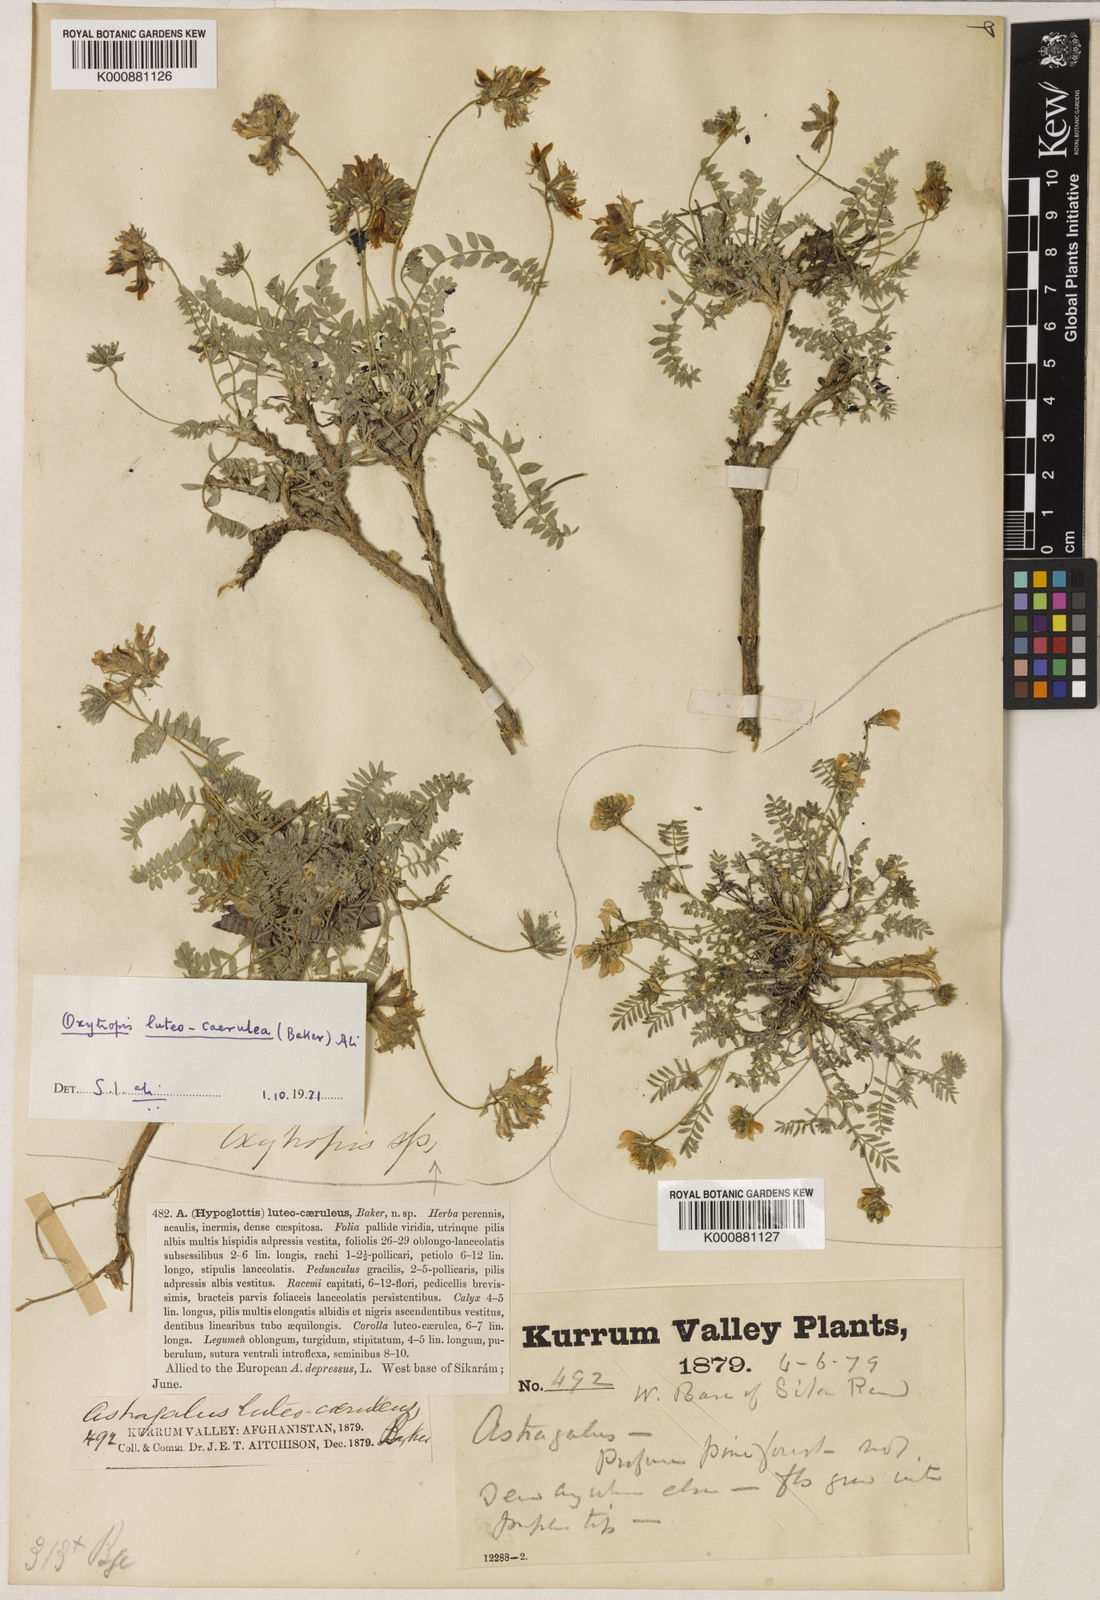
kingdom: Plantae
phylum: Tracheophyta
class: Magnoliopsida
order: Fabales
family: Fabaceae
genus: Oxytropis
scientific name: Oxytropis luteocaerulea
